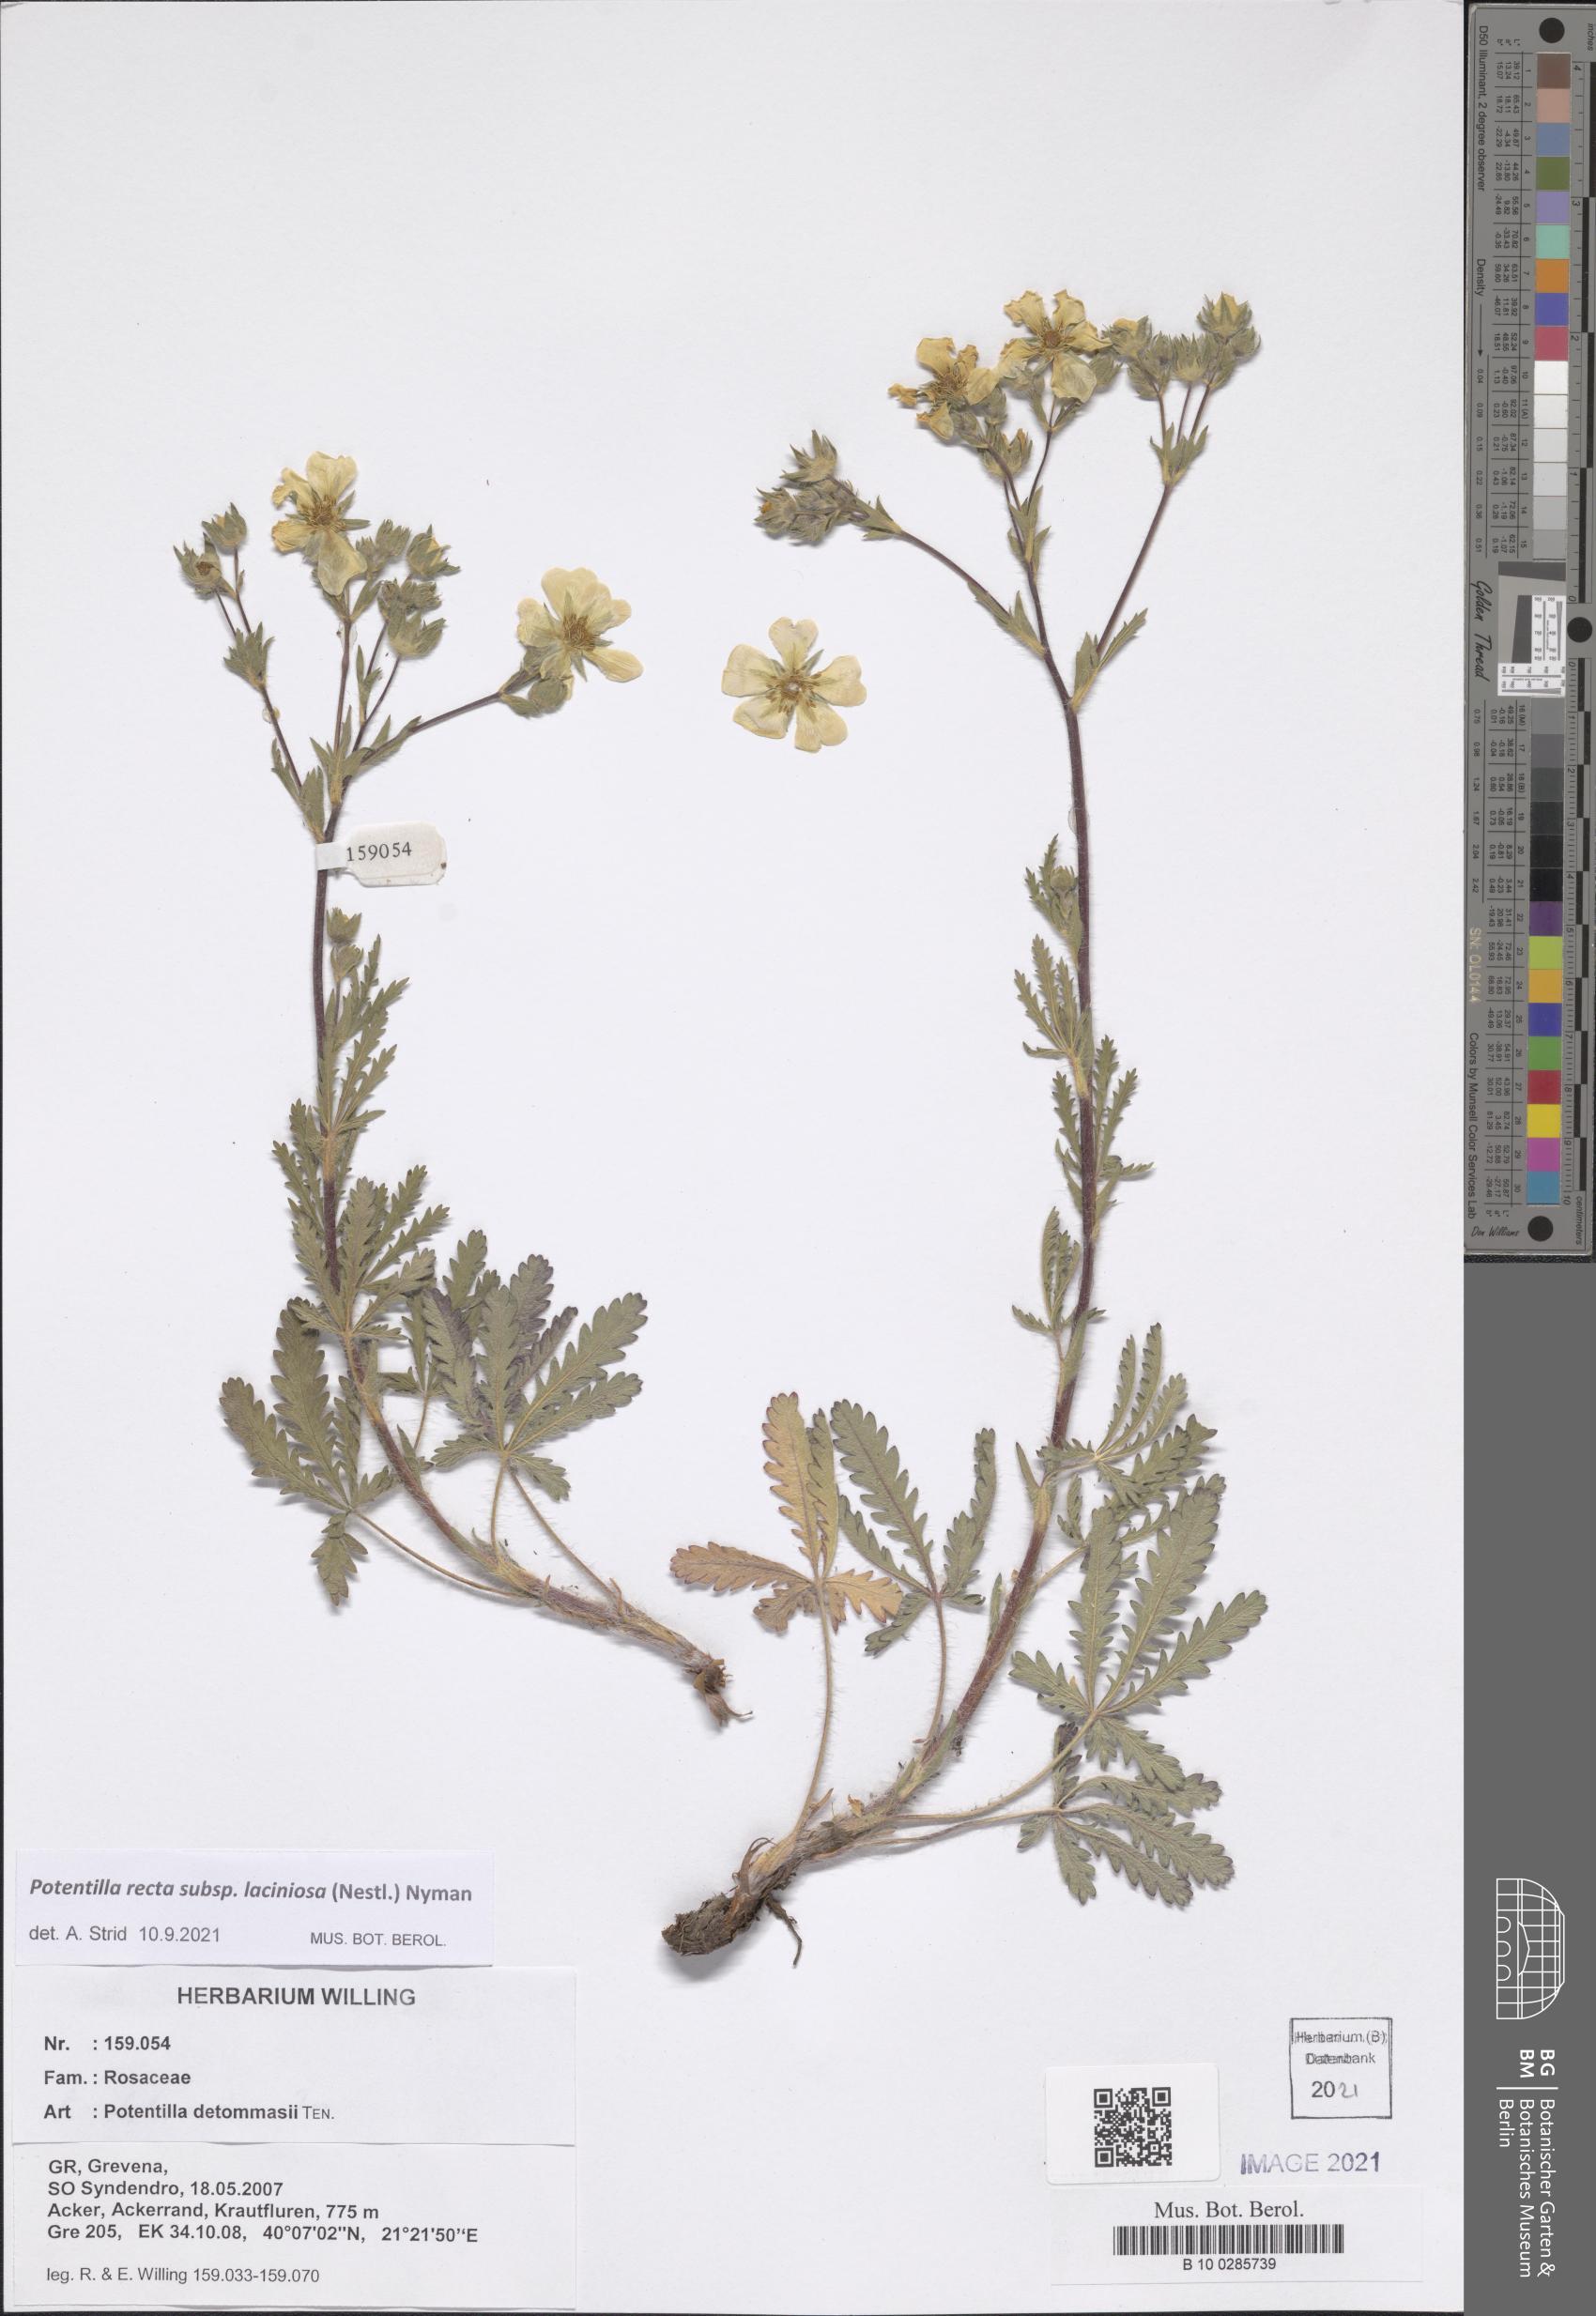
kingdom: Plantae
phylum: Tracheophyta
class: Magnoliopsida
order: Rosales
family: Rosaceae
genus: Potentilla
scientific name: Potentilla recta
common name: Sulphur cinquefoil
